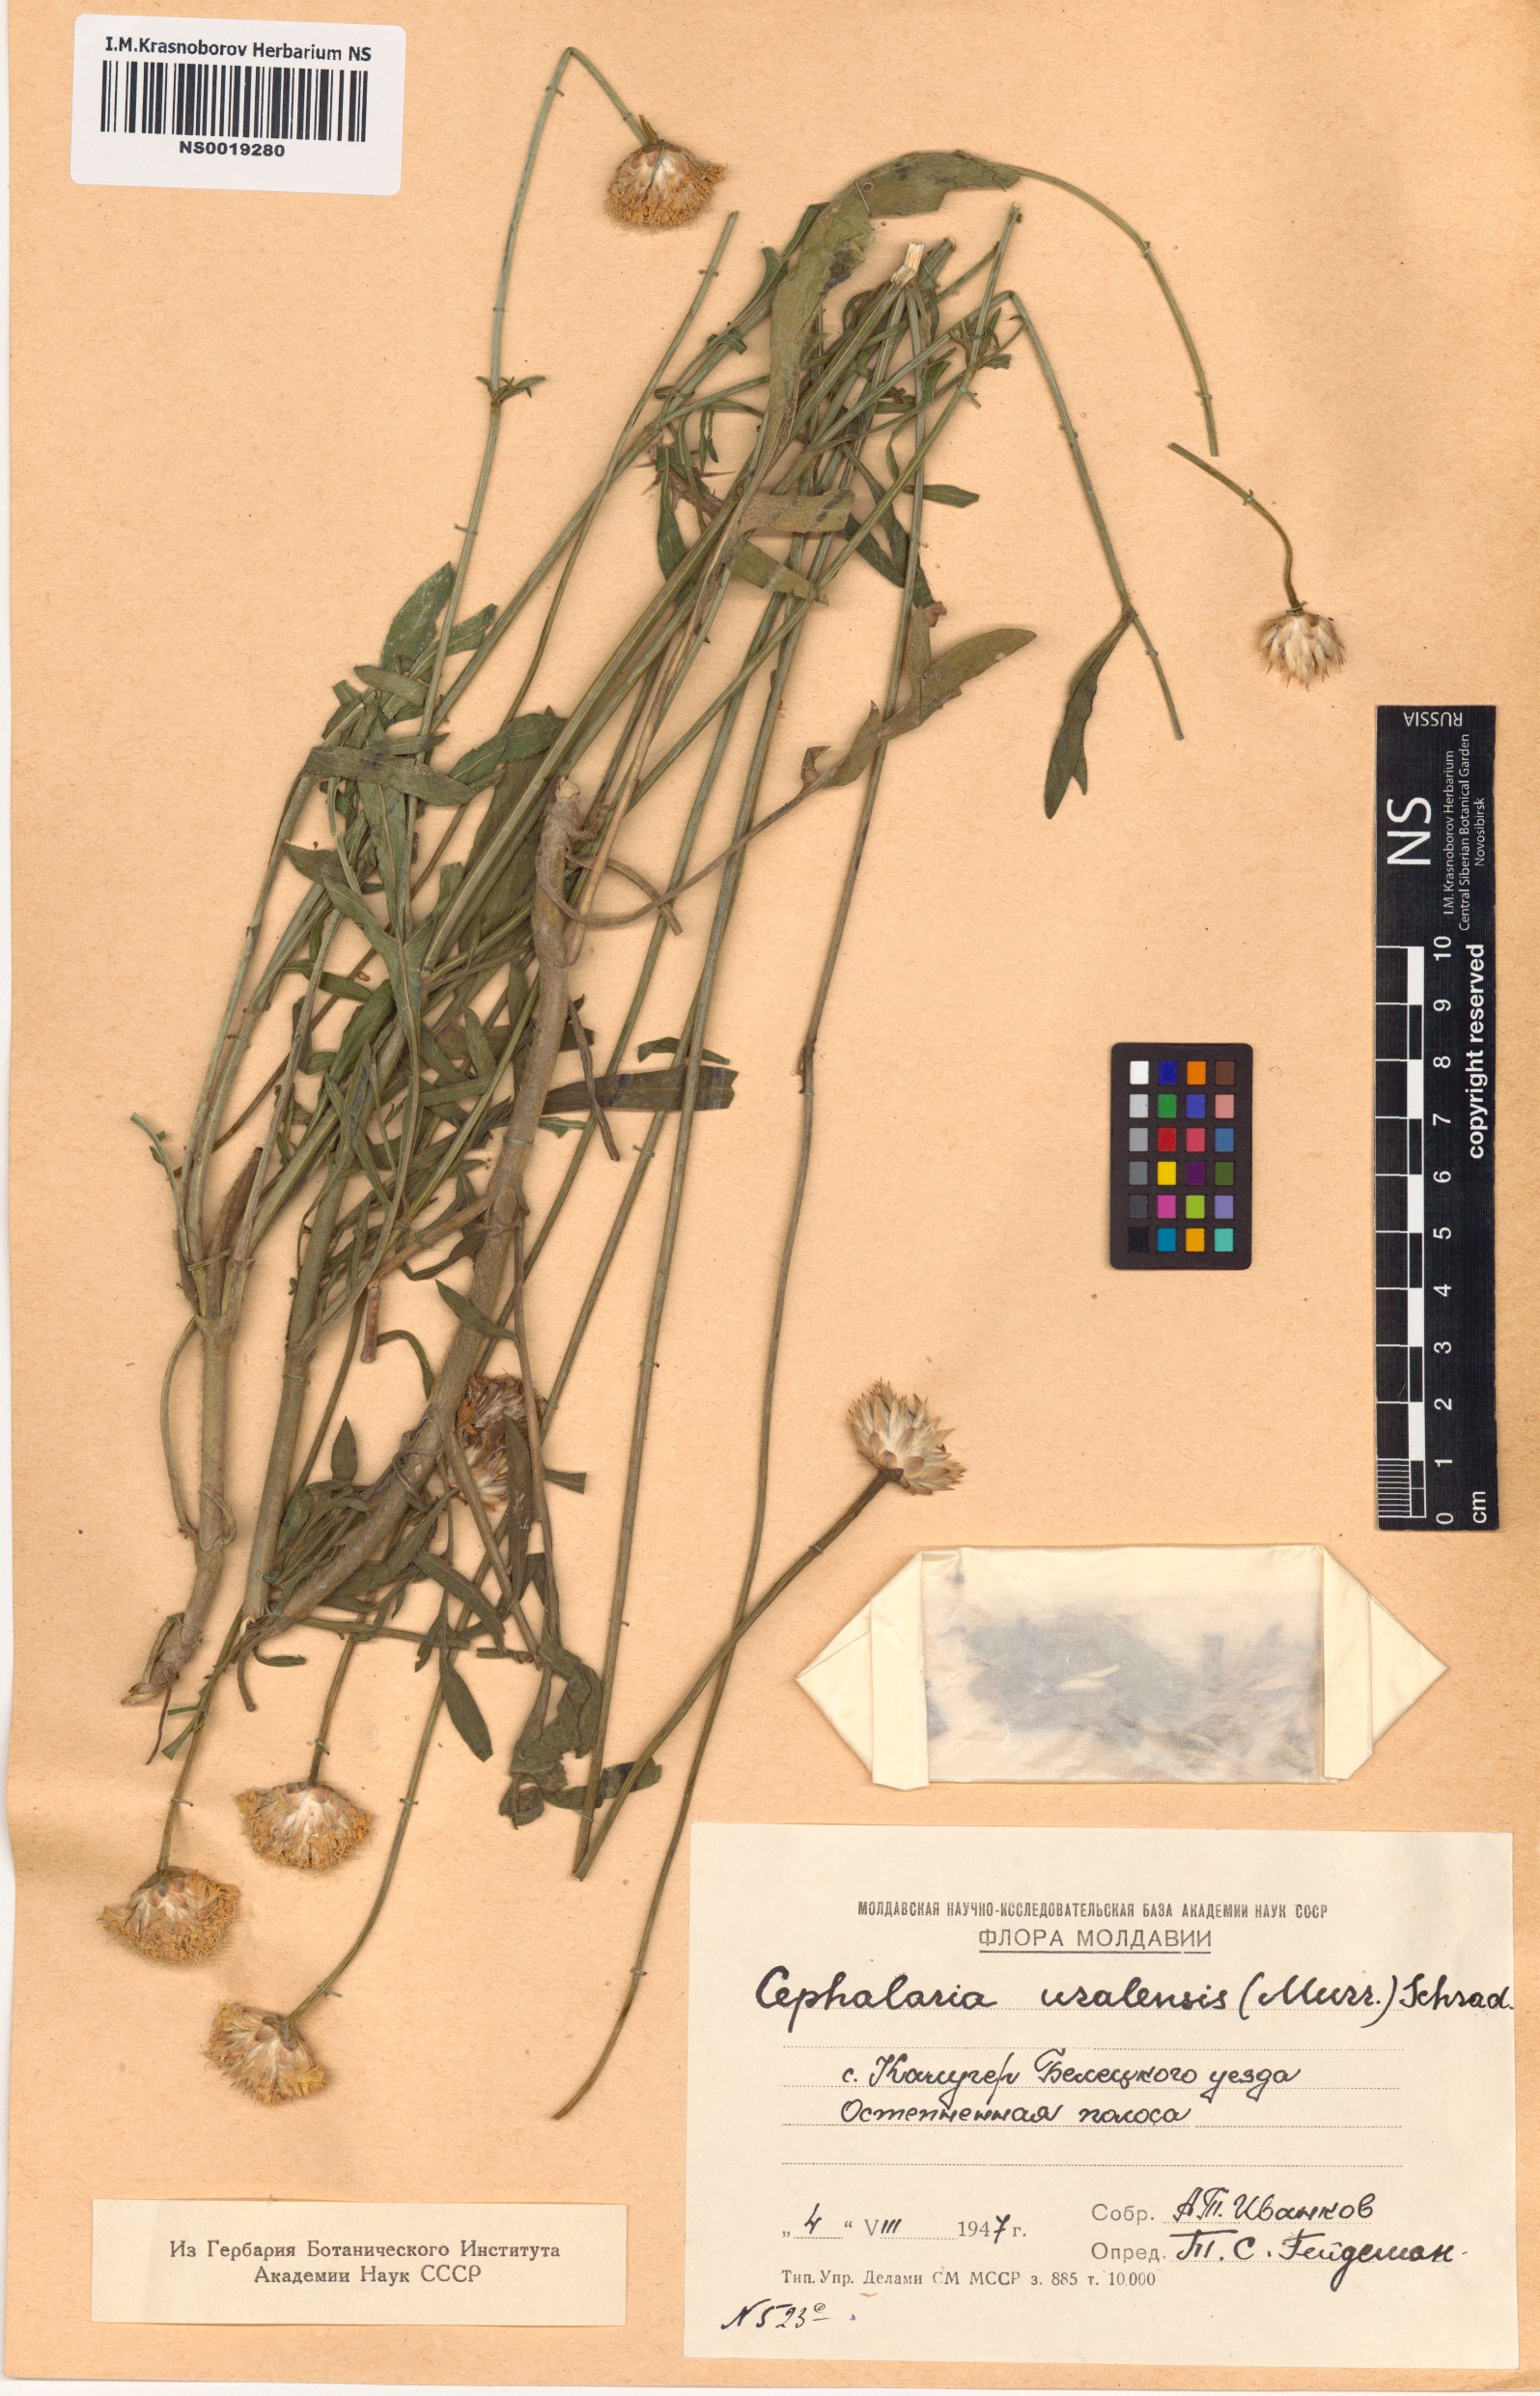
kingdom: Plantae
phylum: Tracheophyta
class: Magnoliopsida
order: Dipsacales
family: Caprifoliaceae
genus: Cephalaria
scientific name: Cephalaria uralensis
